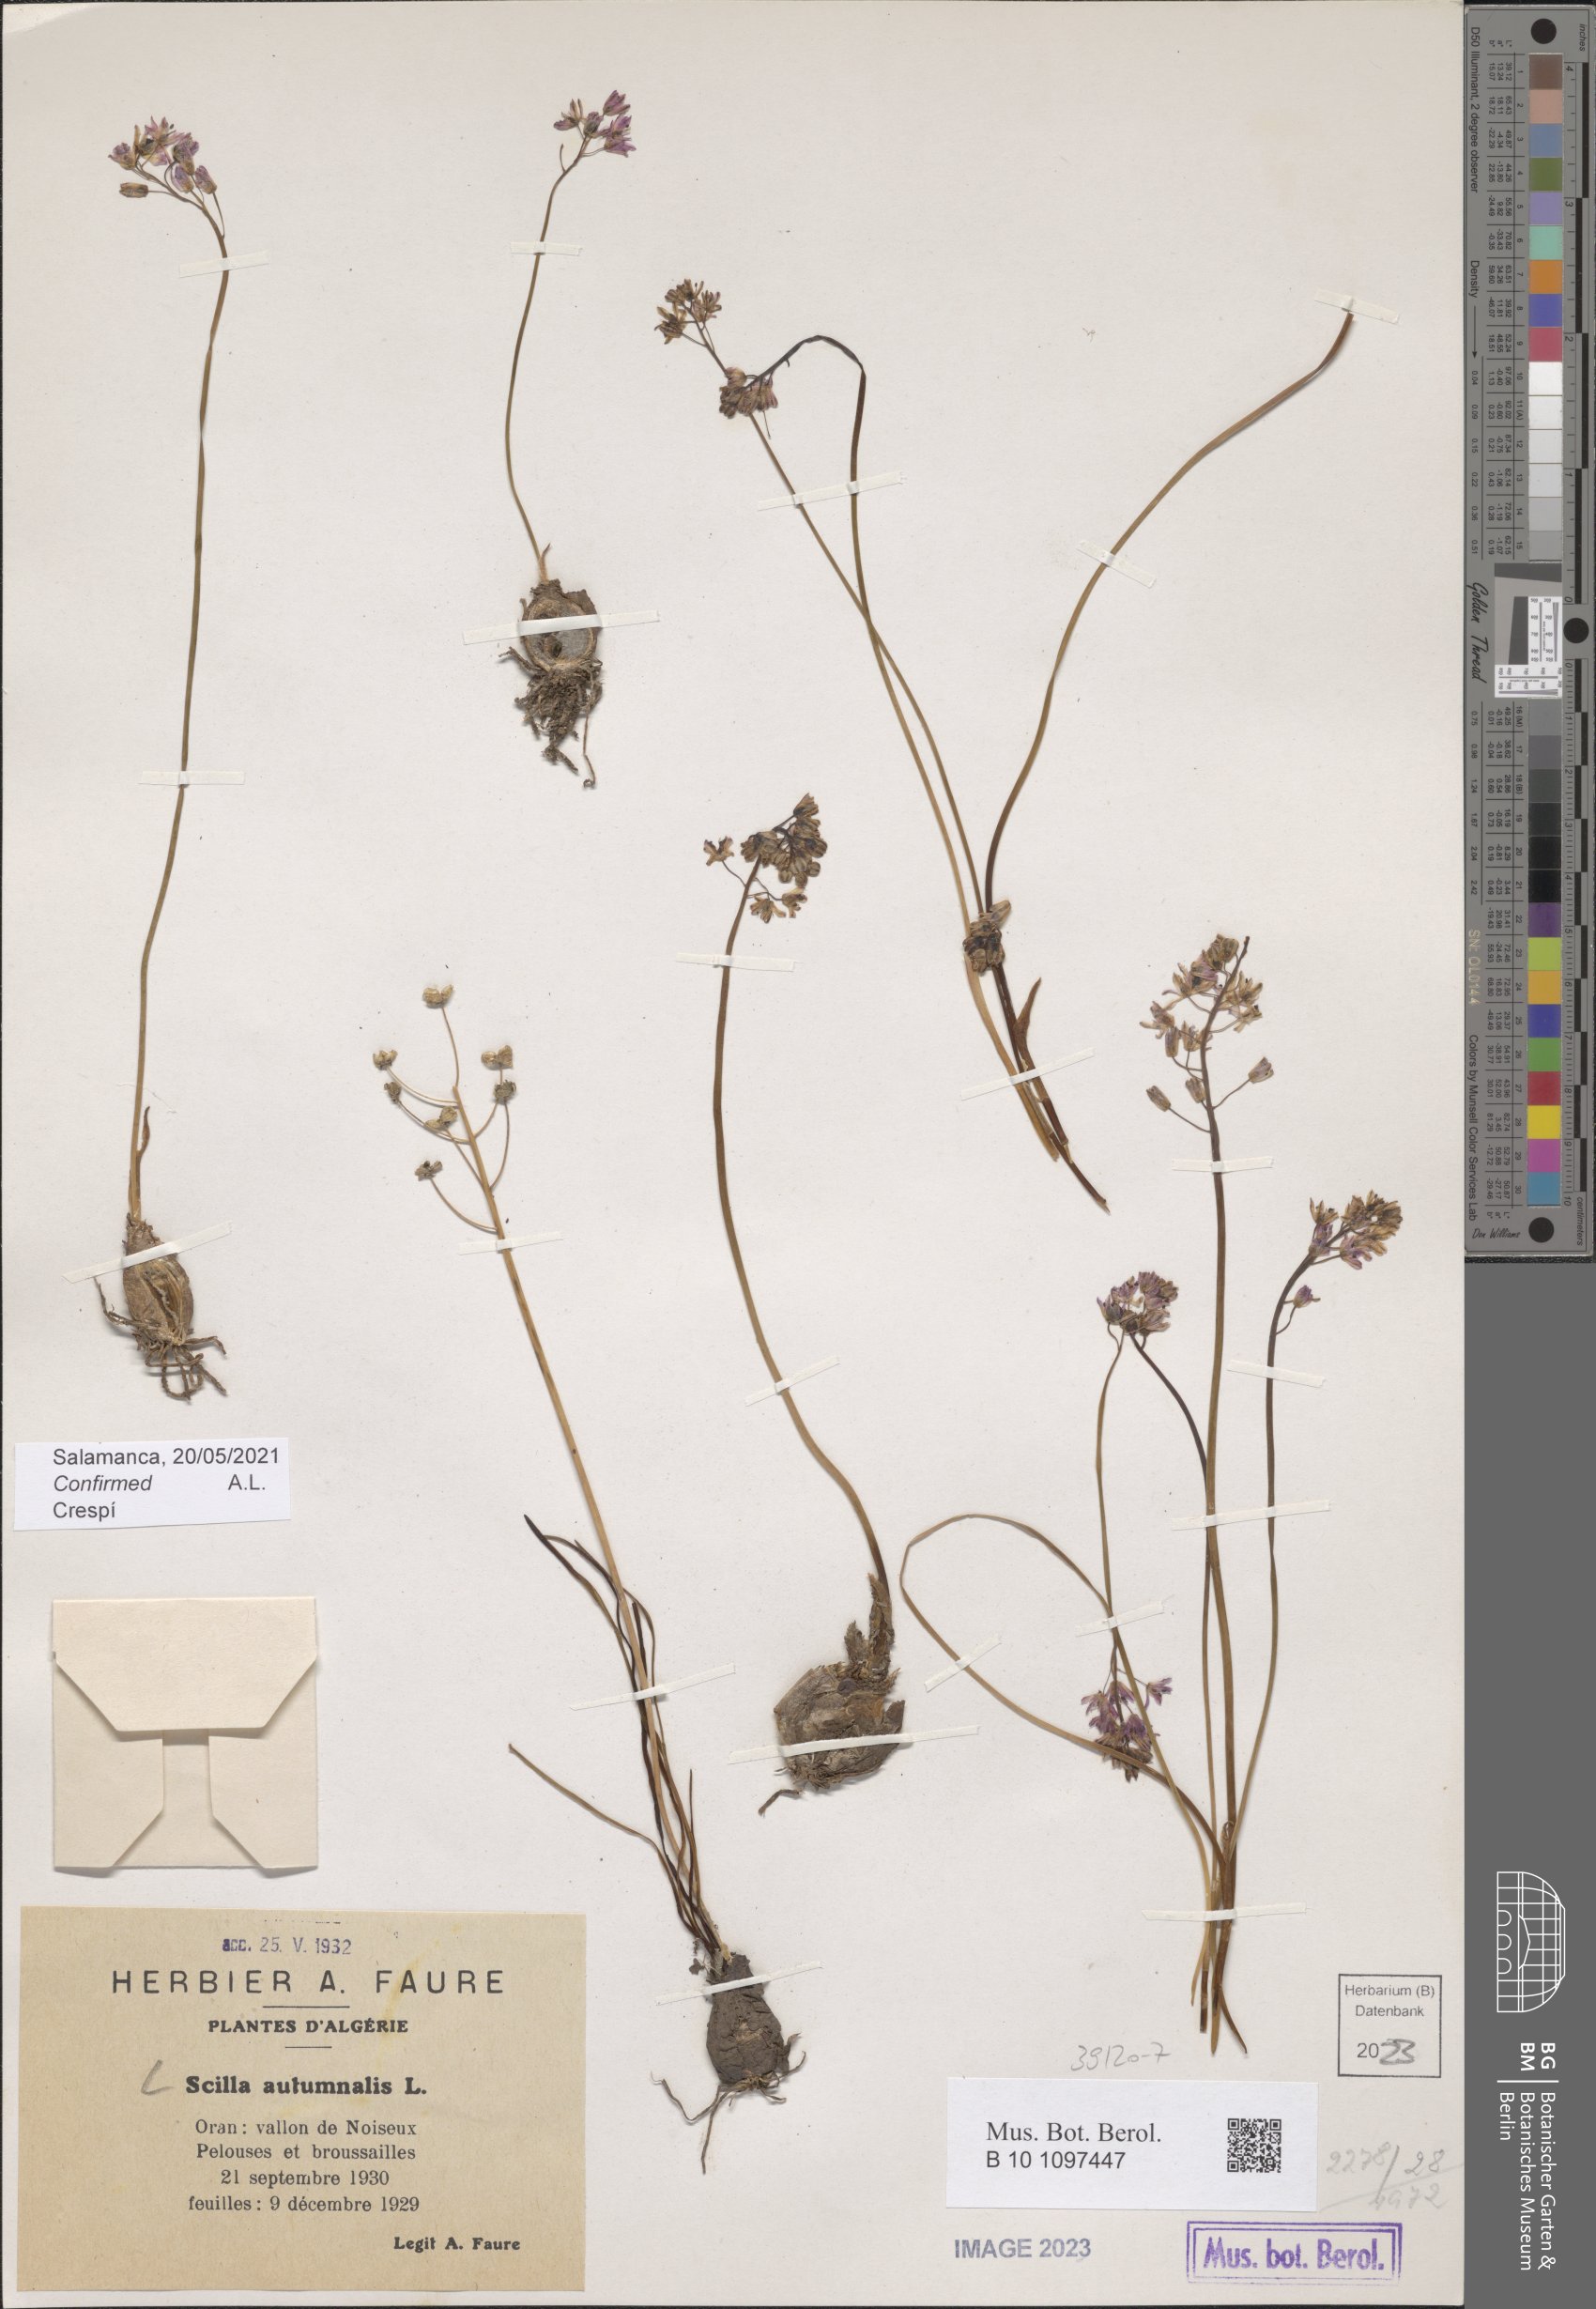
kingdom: Plantae
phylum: Tracheophyta
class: Liliopsida
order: Asparagales
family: Asparagaceae
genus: Prospero
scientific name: Prospero autumnale
